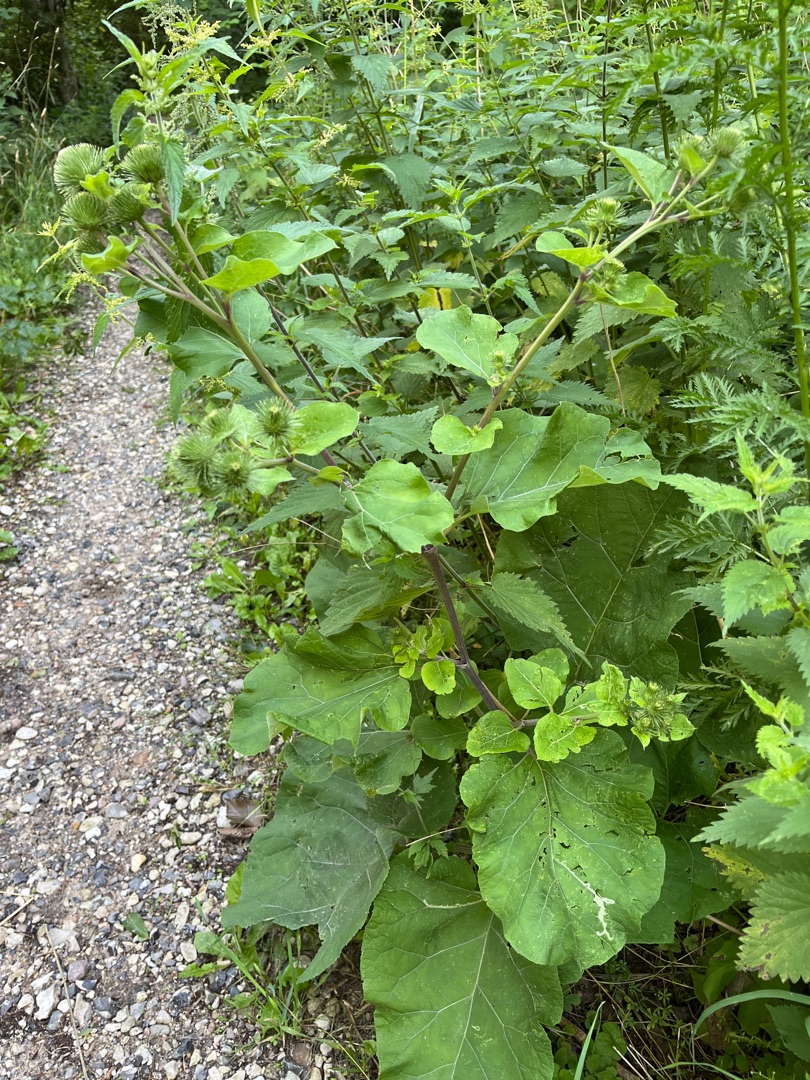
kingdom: Plantae
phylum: Tracheophyta
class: Magnoliopsida
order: Asterales
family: Asteraceae
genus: Arctium
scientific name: Arctium lappa
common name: Glat burre
